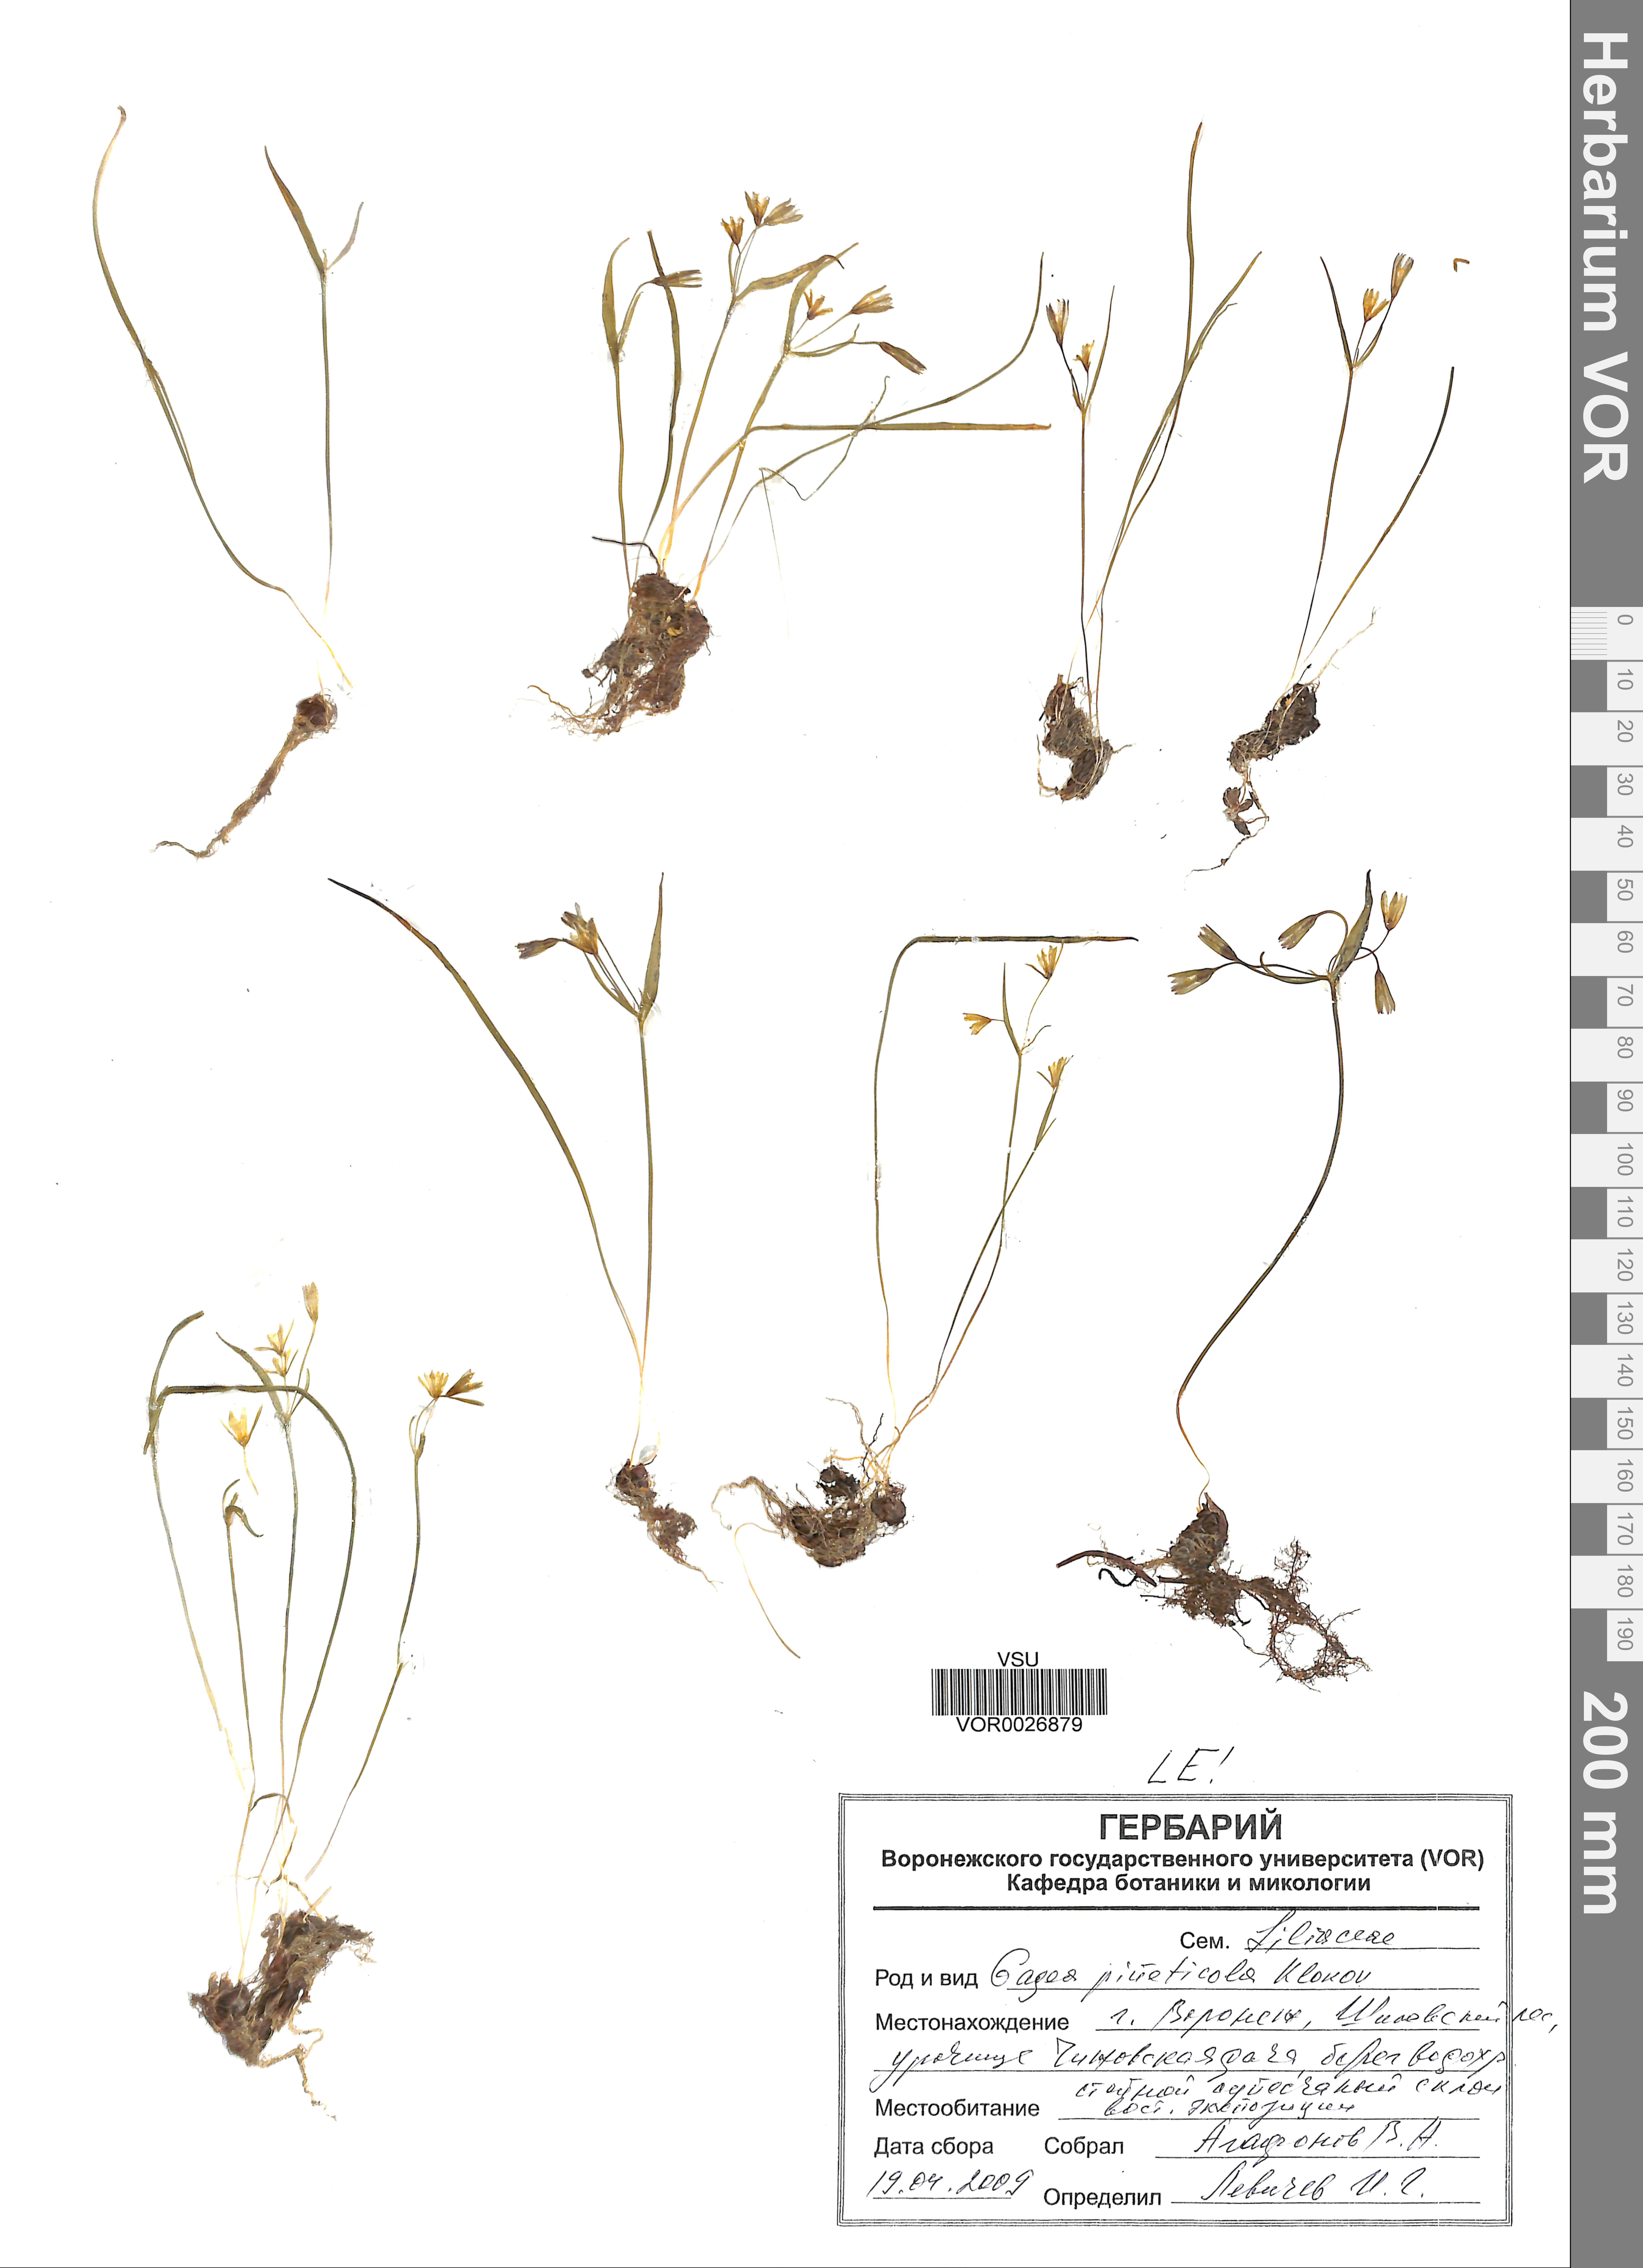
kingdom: Plantae
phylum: Tracheophyta
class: Liliopsida
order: Liliales
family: Liliaceae
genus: Gagea
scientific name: Gagea pusilla
